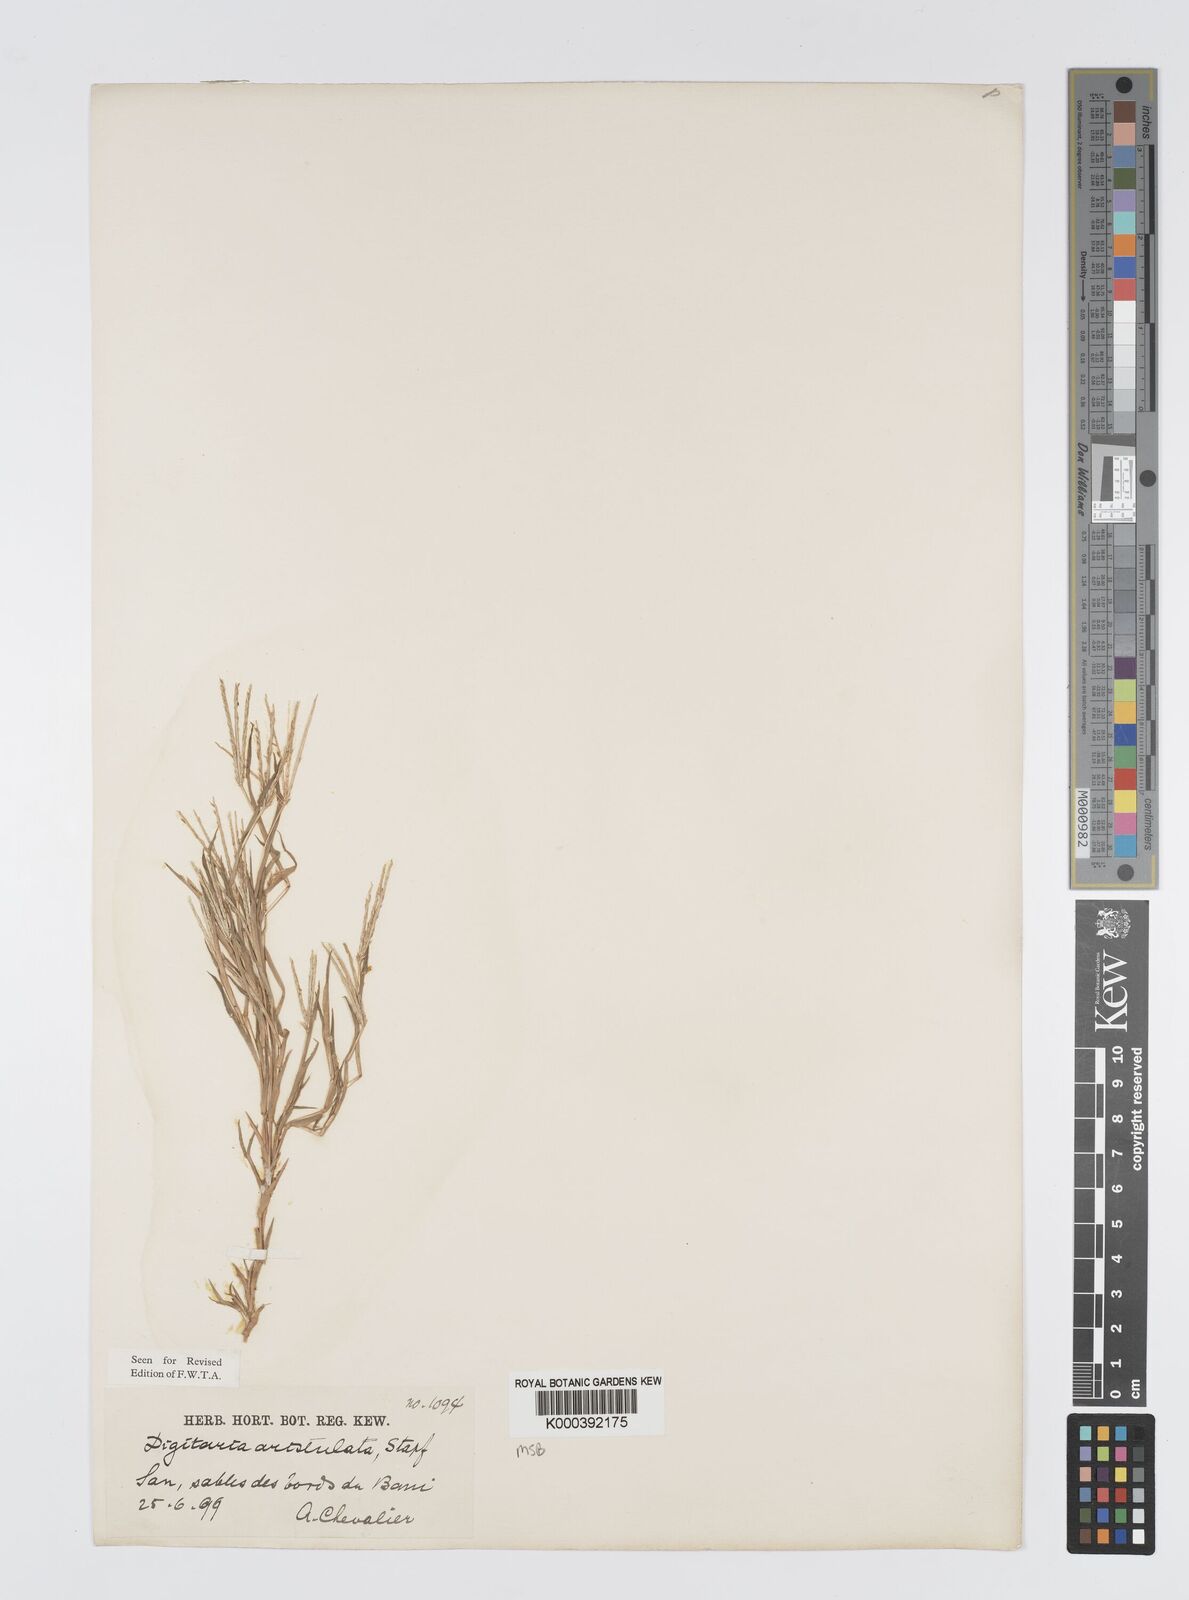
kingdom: Plantae
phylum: Tracheophyta
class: Liliopsida
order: Poales
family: Poaceae
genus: Digitaria
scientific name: Digitaria aristulata
